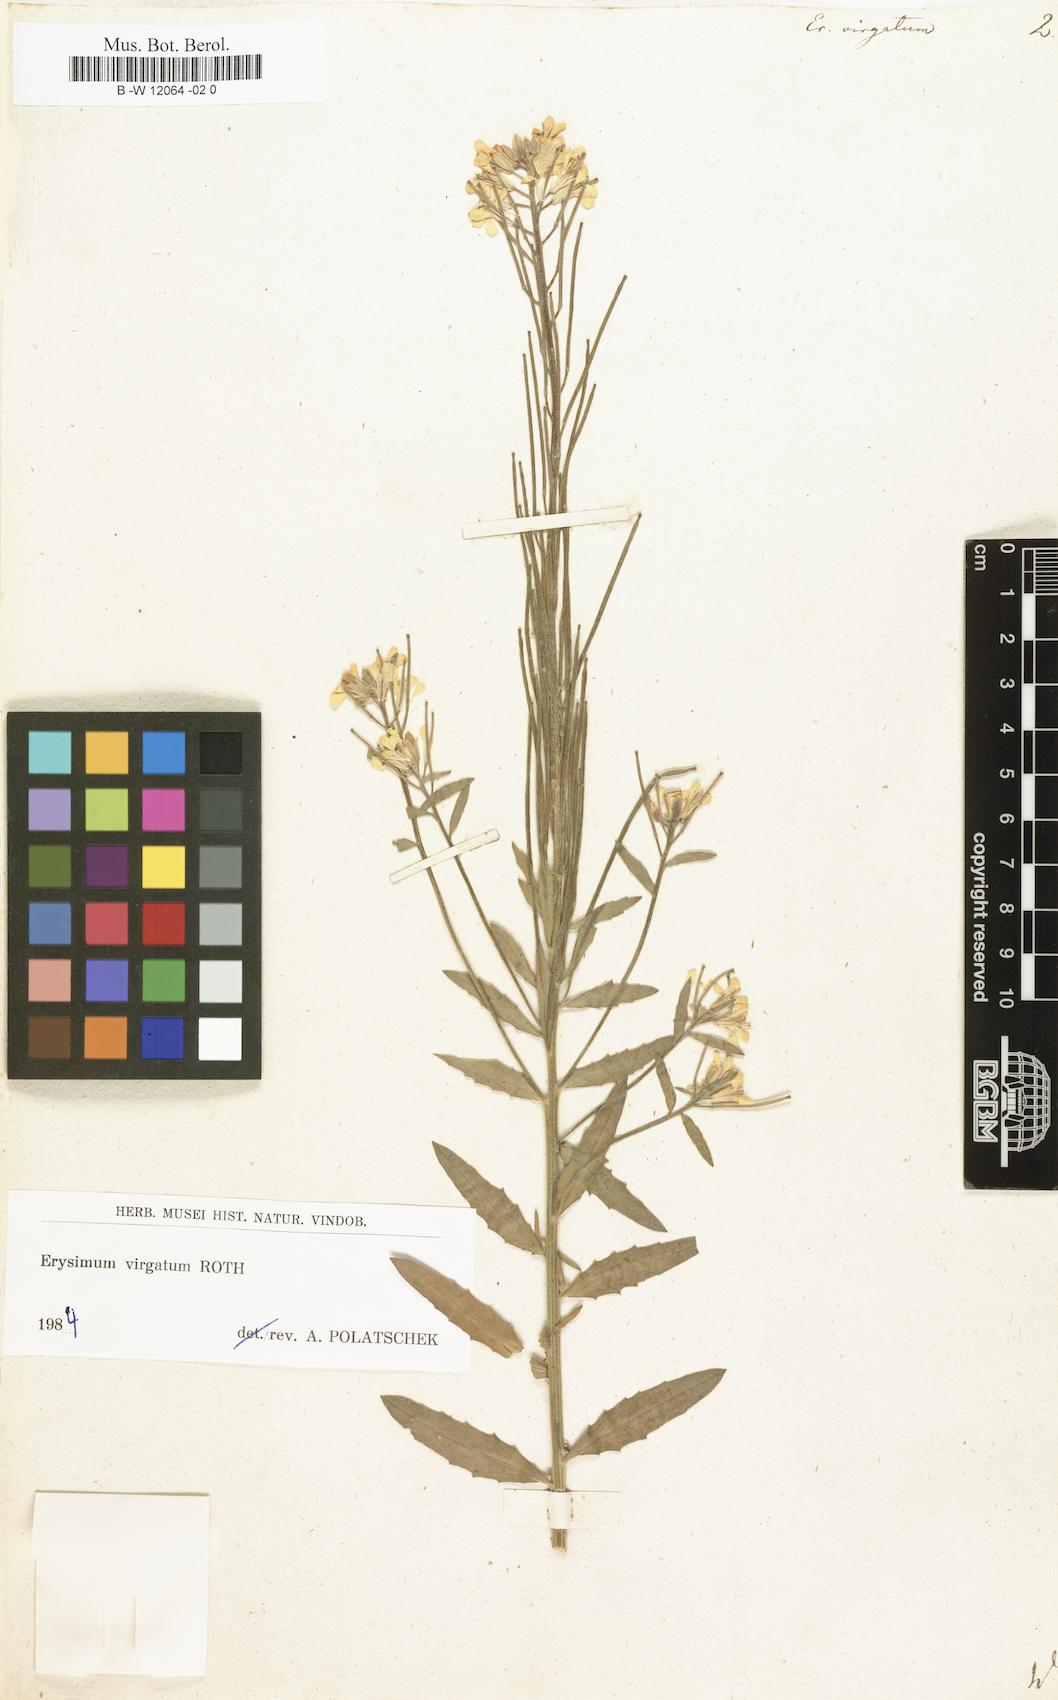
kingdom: Plantae
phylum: Tracheophyta
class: Magnoliopsida
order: Brassicales
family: Brassicaceae
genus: Erysimum
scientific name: Erysimum virgatum
